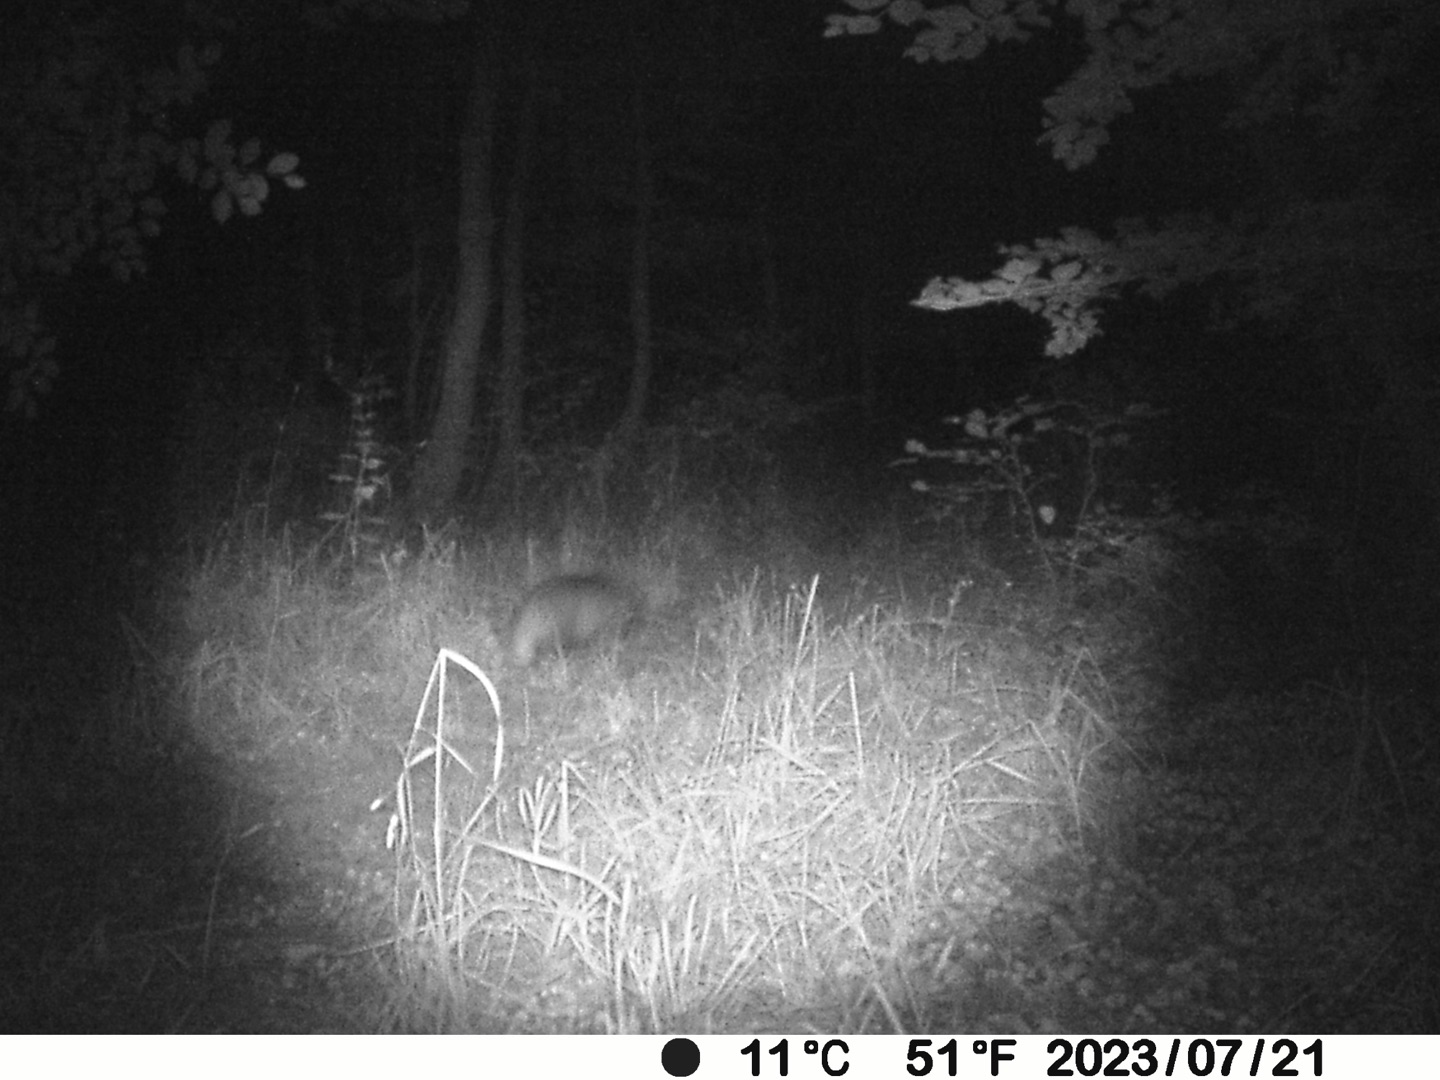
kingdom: Animalia
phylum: Chordata
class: Mammalia
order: Carnivora
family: Mustelidae
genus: Meles
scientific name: Meles meles
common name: Grævling
